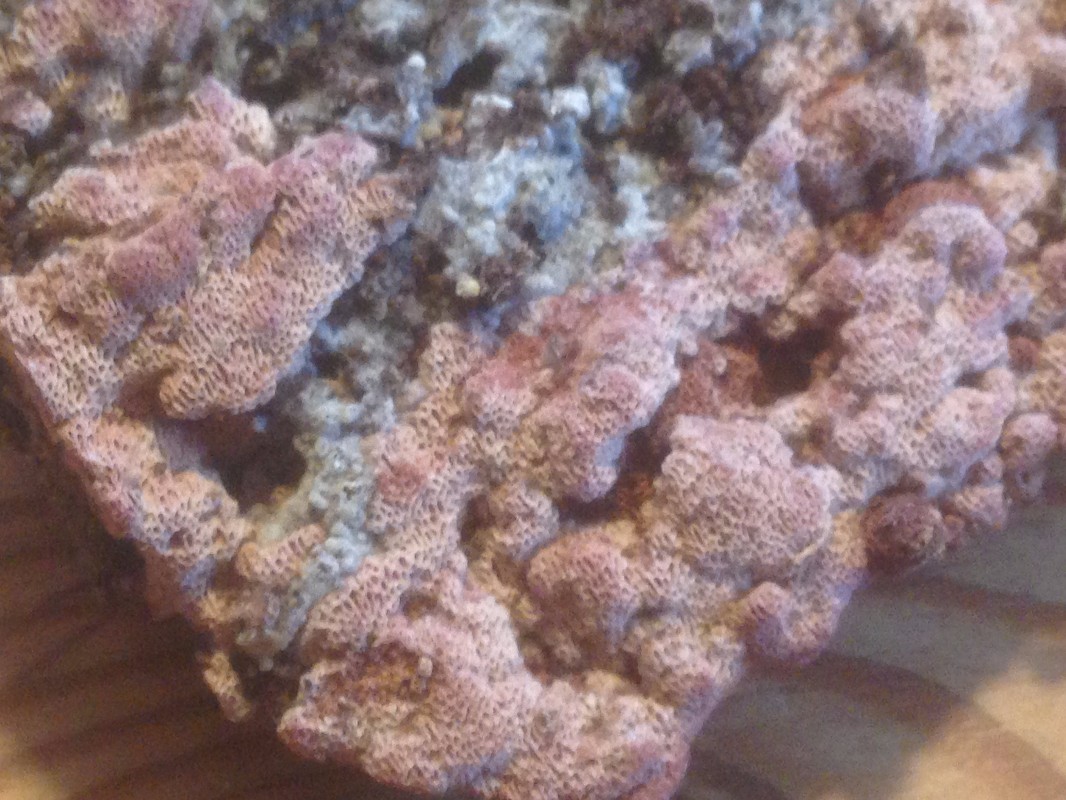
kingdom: Fungi
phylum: Basidiomycota
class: Agaricomycetes
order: Polyporales
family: Irpicaceae
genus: Ceriporia
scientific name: Ceriporia excelsa
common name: lilla voksporesvamp
